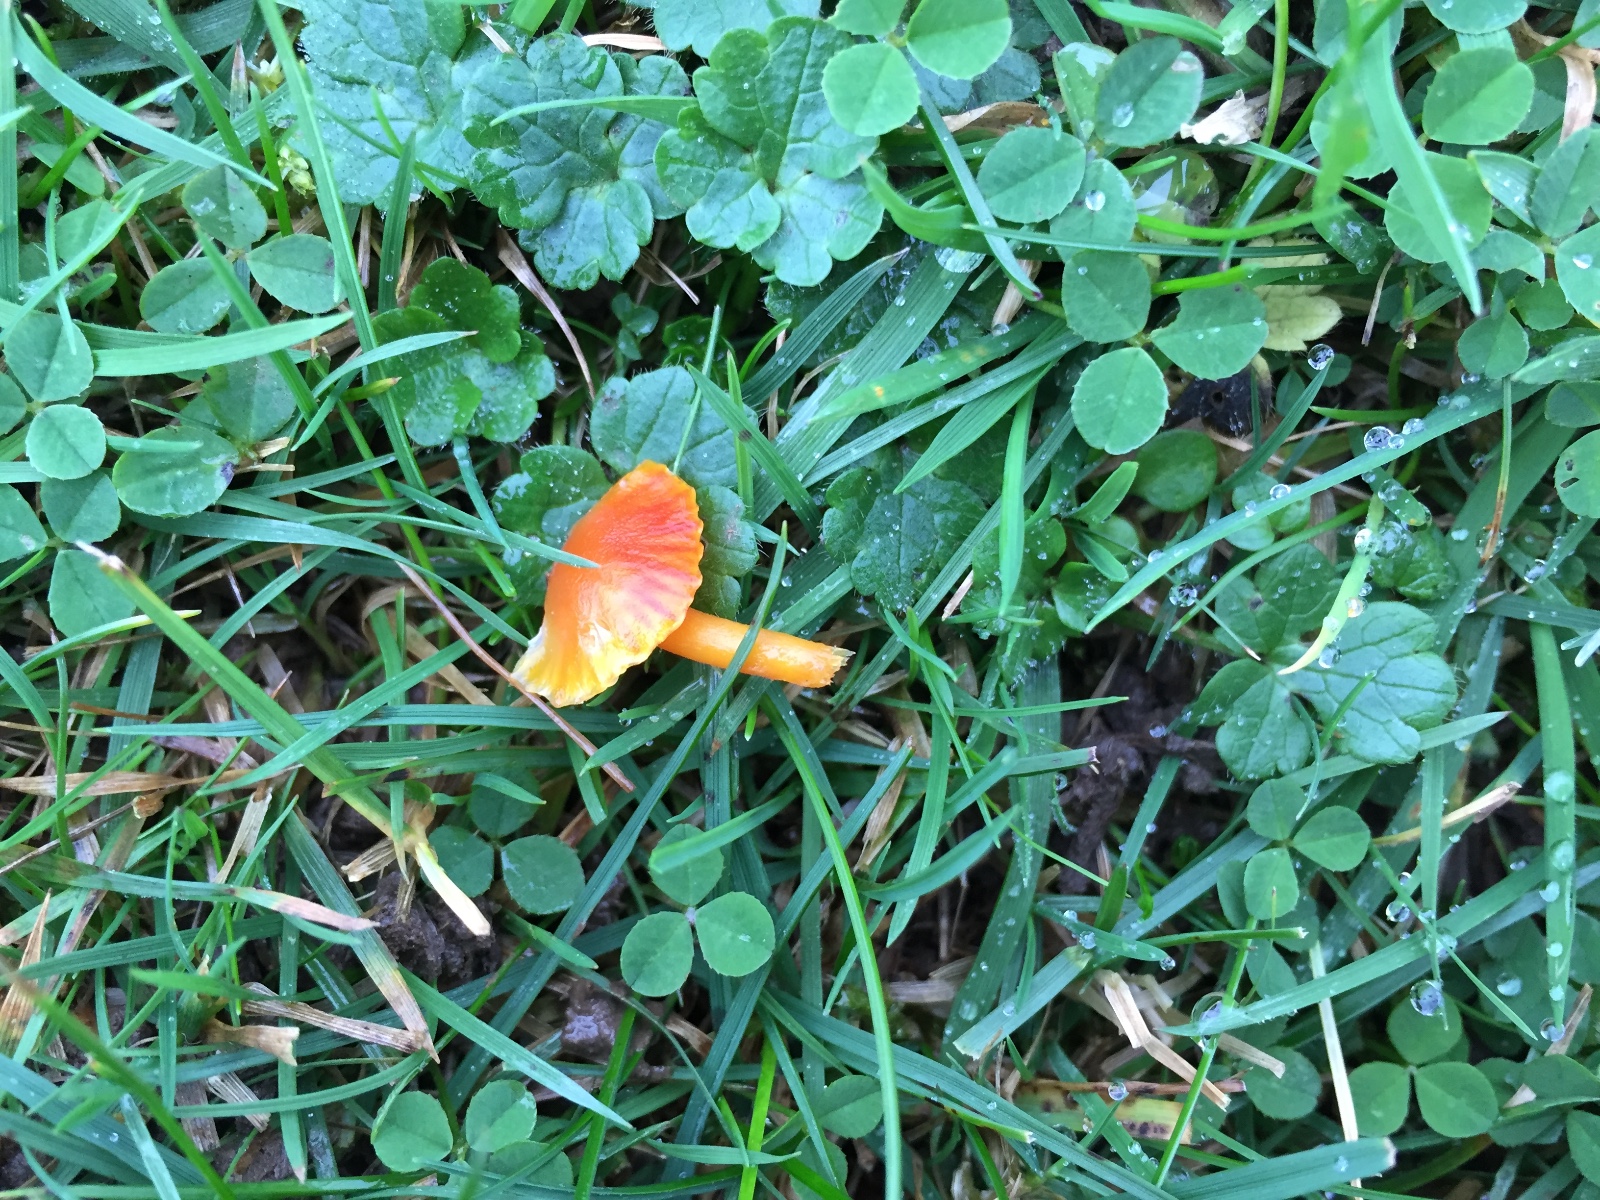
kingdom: Fungi
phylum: Basidiomycota
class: Agaricomycetes
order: Agaricales
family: Hygrophoraceae
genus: Hygrocybe
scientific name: Hygrocybe insipida
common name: liden vokshat
